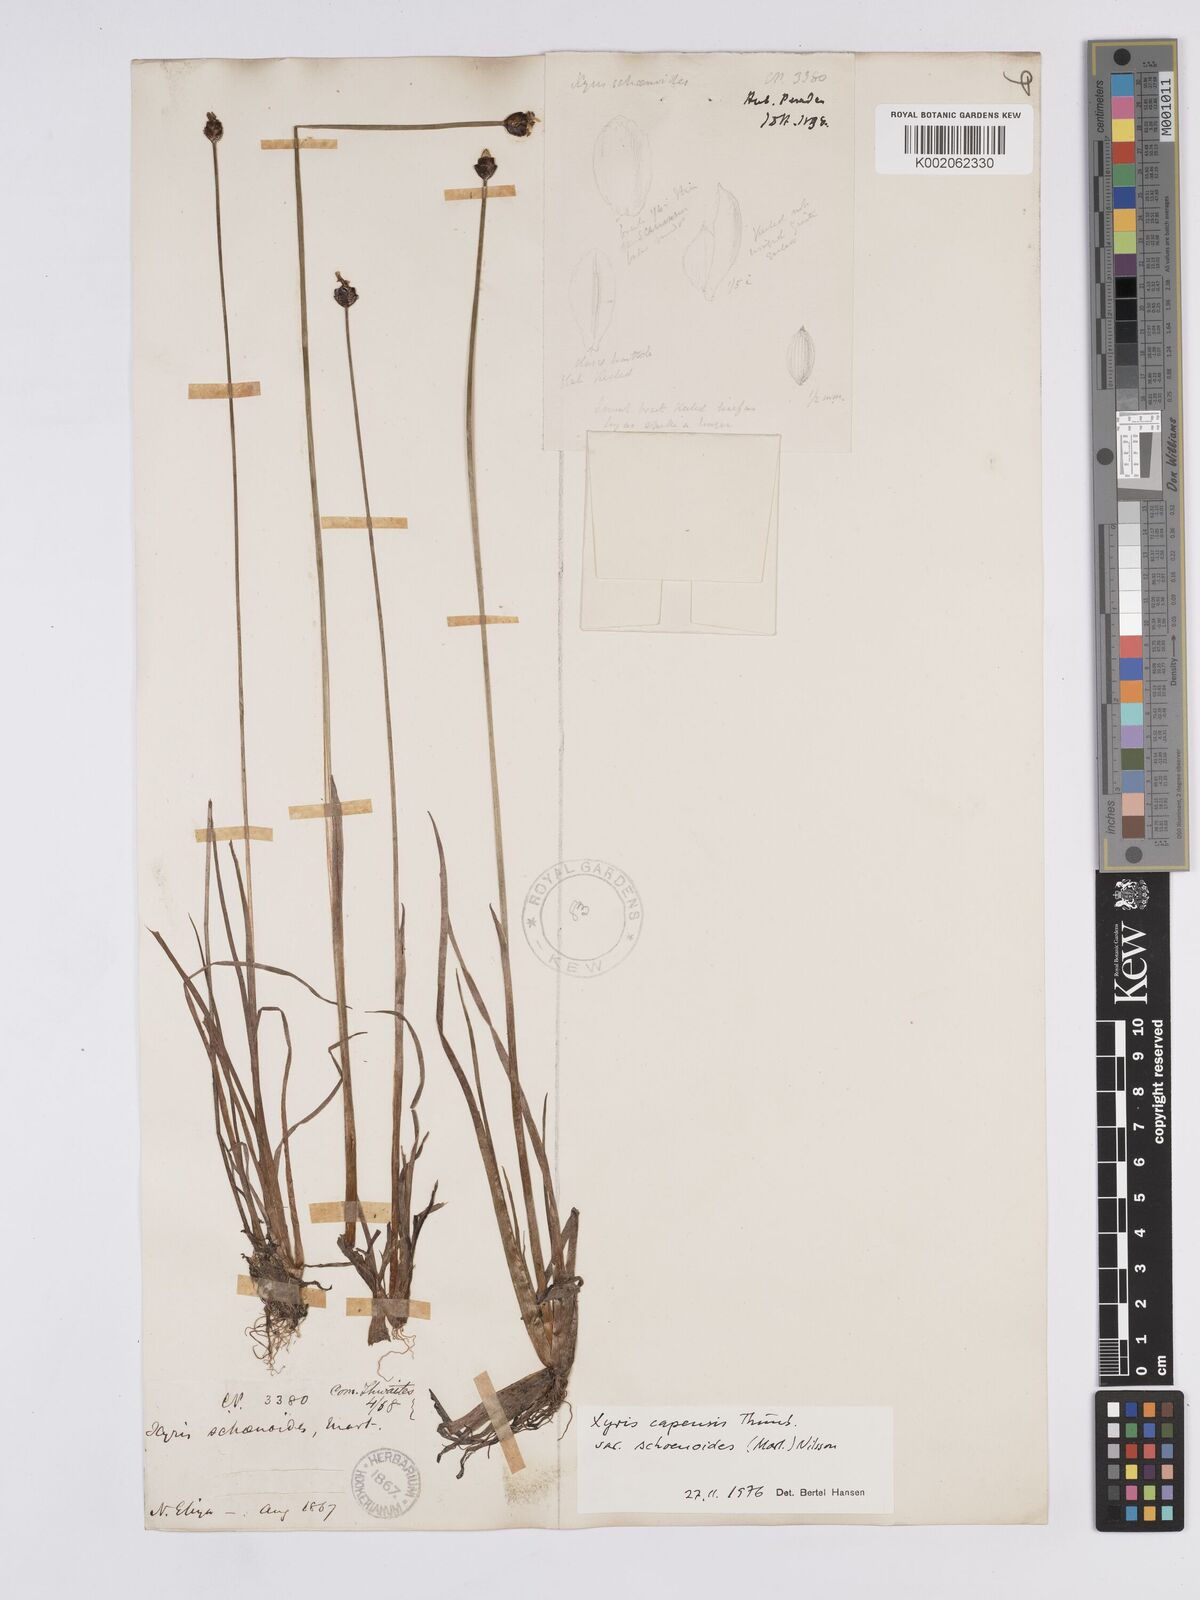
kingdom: Plantae
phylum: Tracheophyta
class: Liliopsida
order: Poales
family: Xyridaceae
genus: Xyris
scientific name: Xyris capensis
